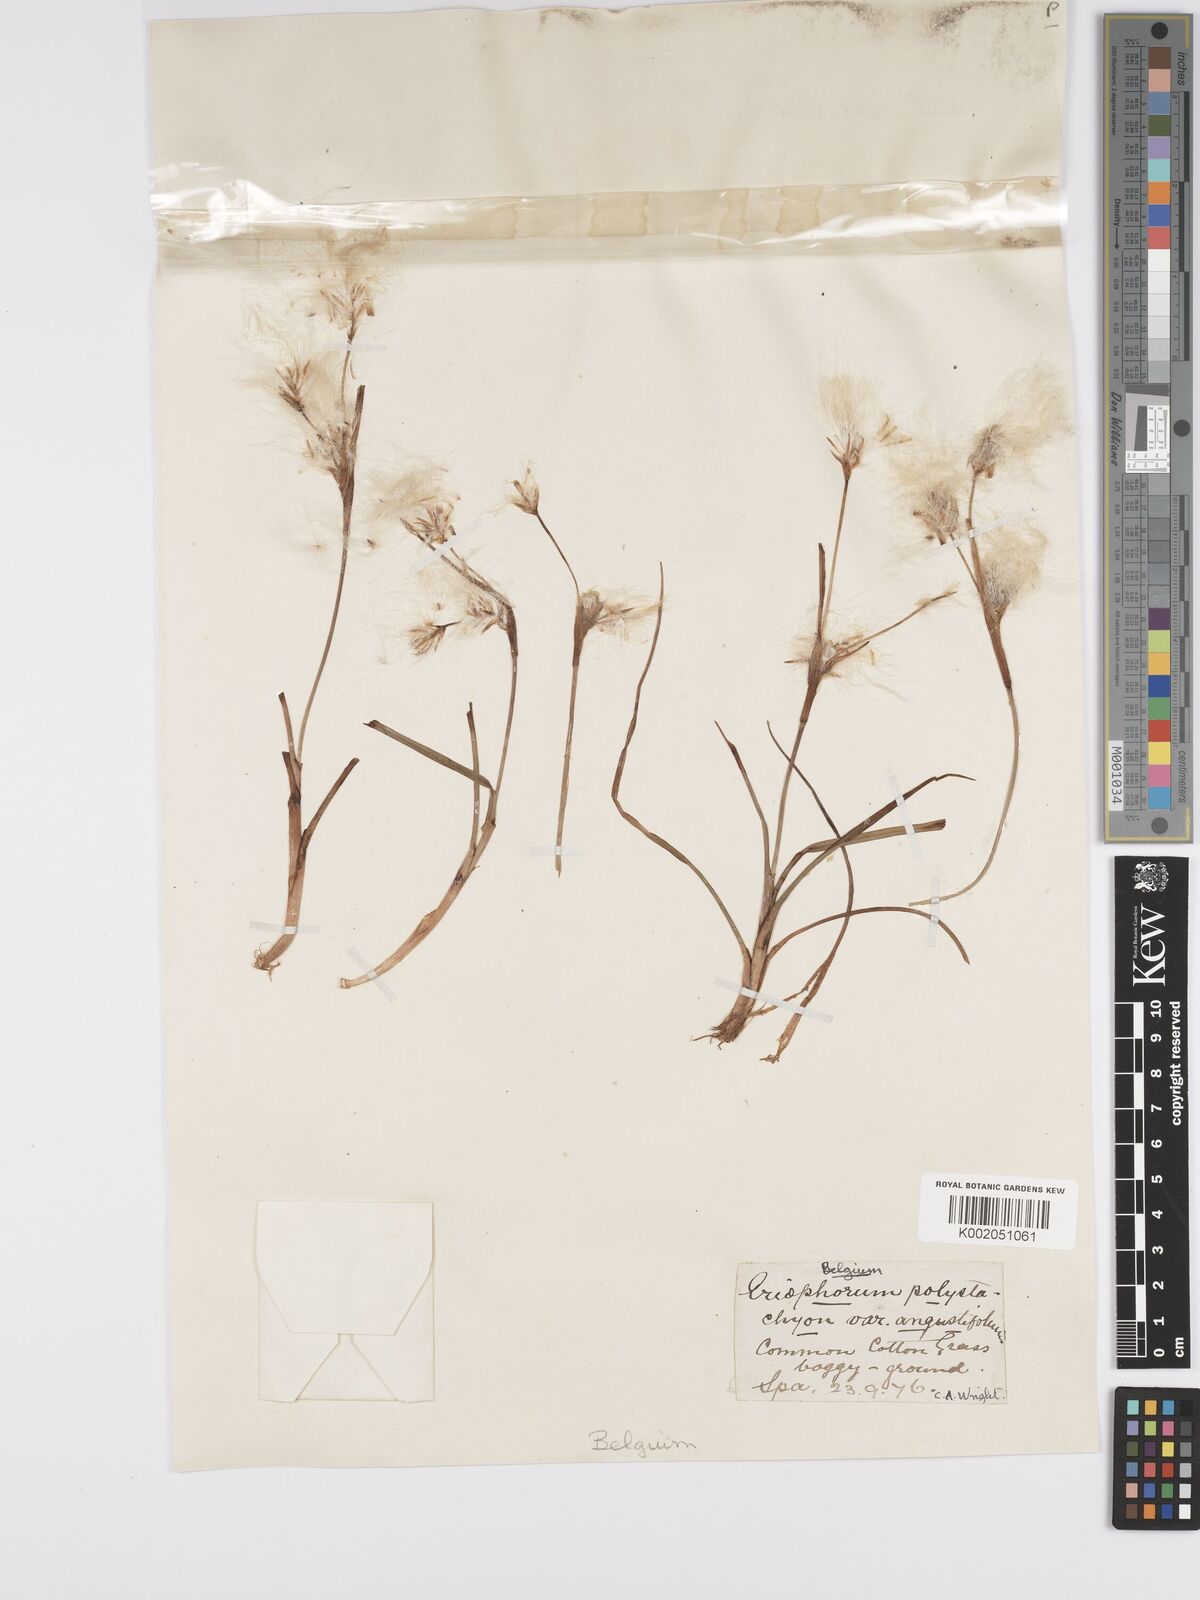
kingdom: Plantae
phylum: Tracheophyta
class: Liliopsida
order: Poales
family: Cyperaceae
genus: Eriophorum
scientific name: Eriophorum angustifolium
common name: Common cottongrass
